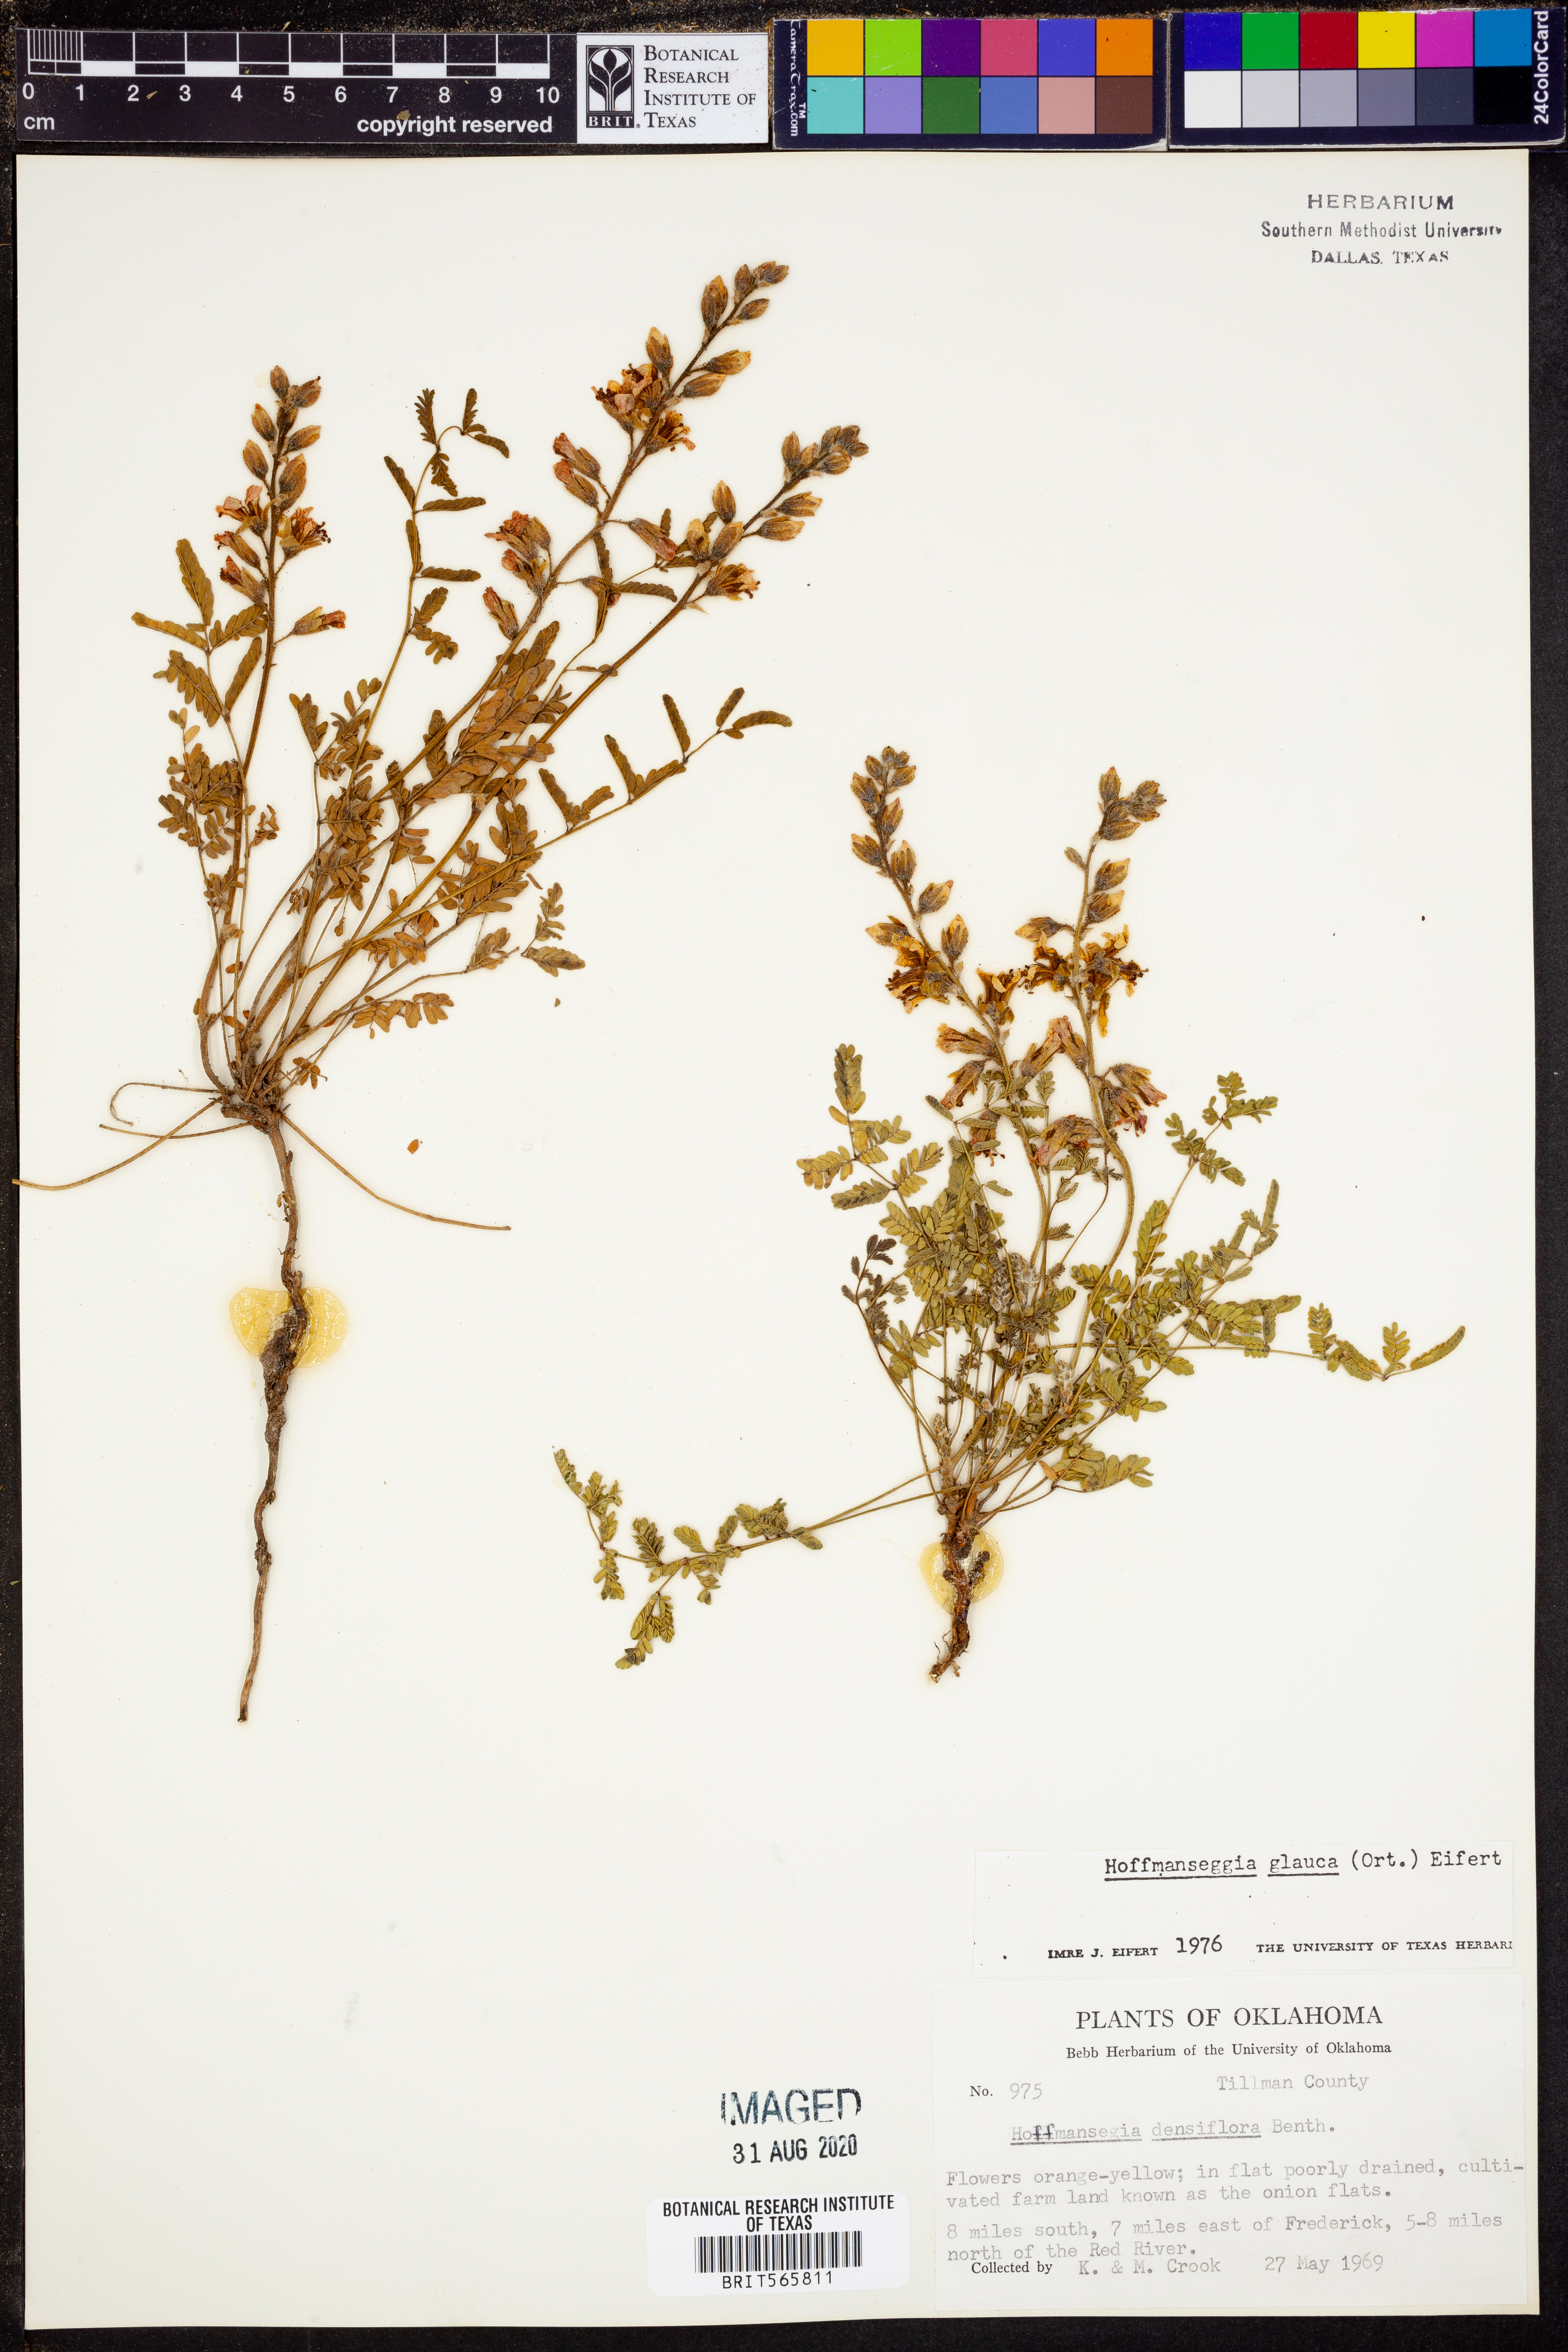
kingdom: Plantae
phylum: Tracheophyta
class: Magnoliopsida
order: Fabales
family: Fabaceae
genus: Hoffmannseggia
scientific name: Hoffmannseggia glauca
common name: Pignut
